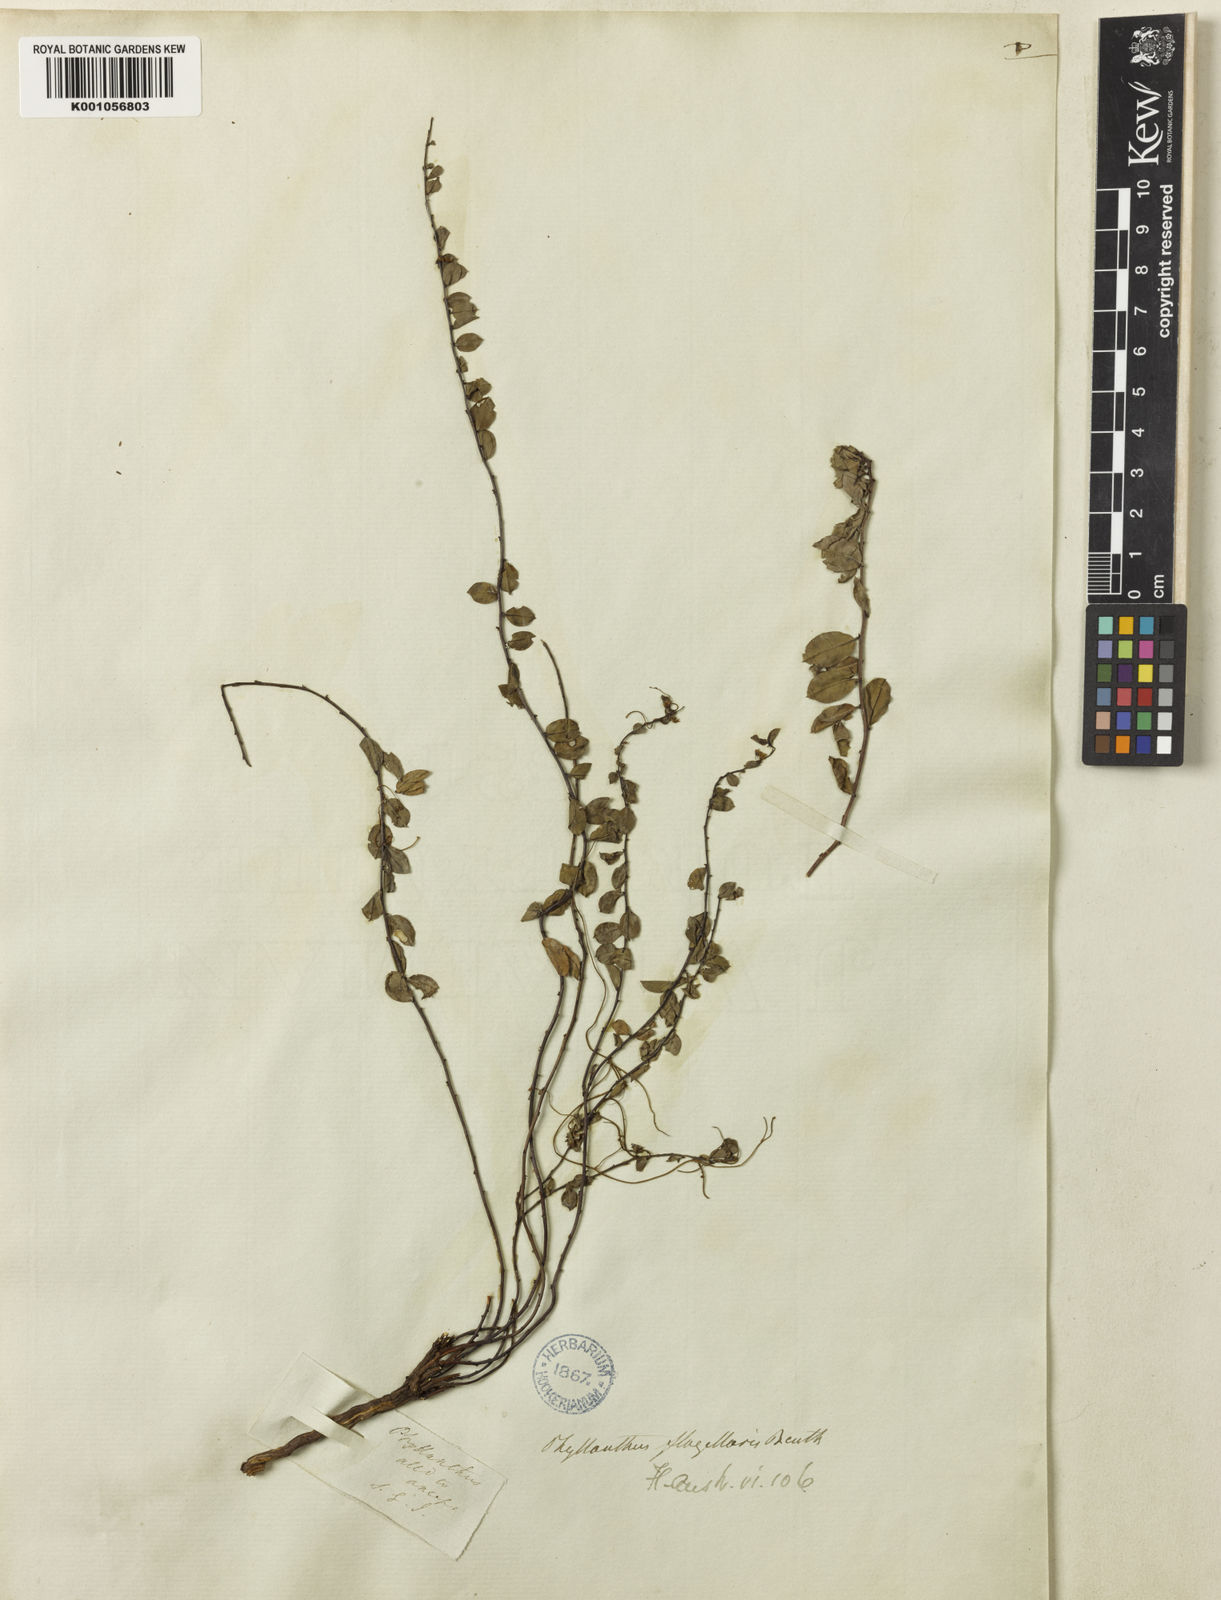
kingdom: Plantae
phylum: Tracheophyta
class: Magnoliopsida
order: Malpighiales
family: Phyllanthaceae
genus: Phyllanthus
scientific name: Phyllanthus flagellaris
